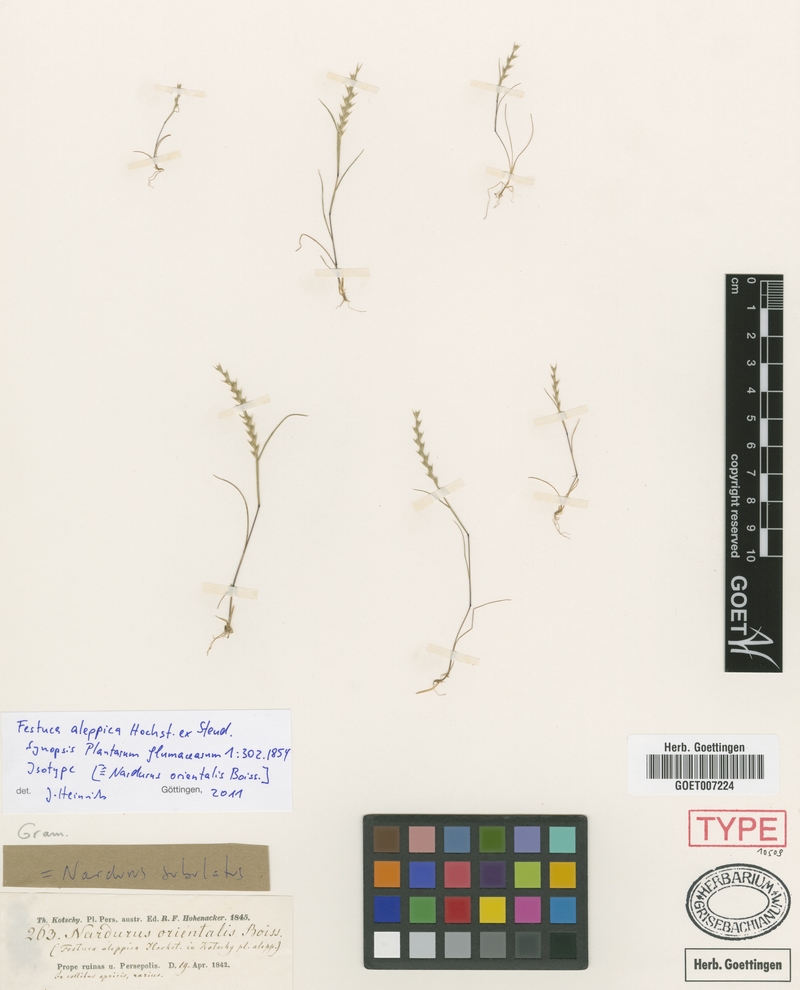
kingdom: Plantae
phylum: Tracheophyta
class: Liliopsida
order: Poales
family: Poaceae
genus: Festuca
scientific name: Festuca orientalis
